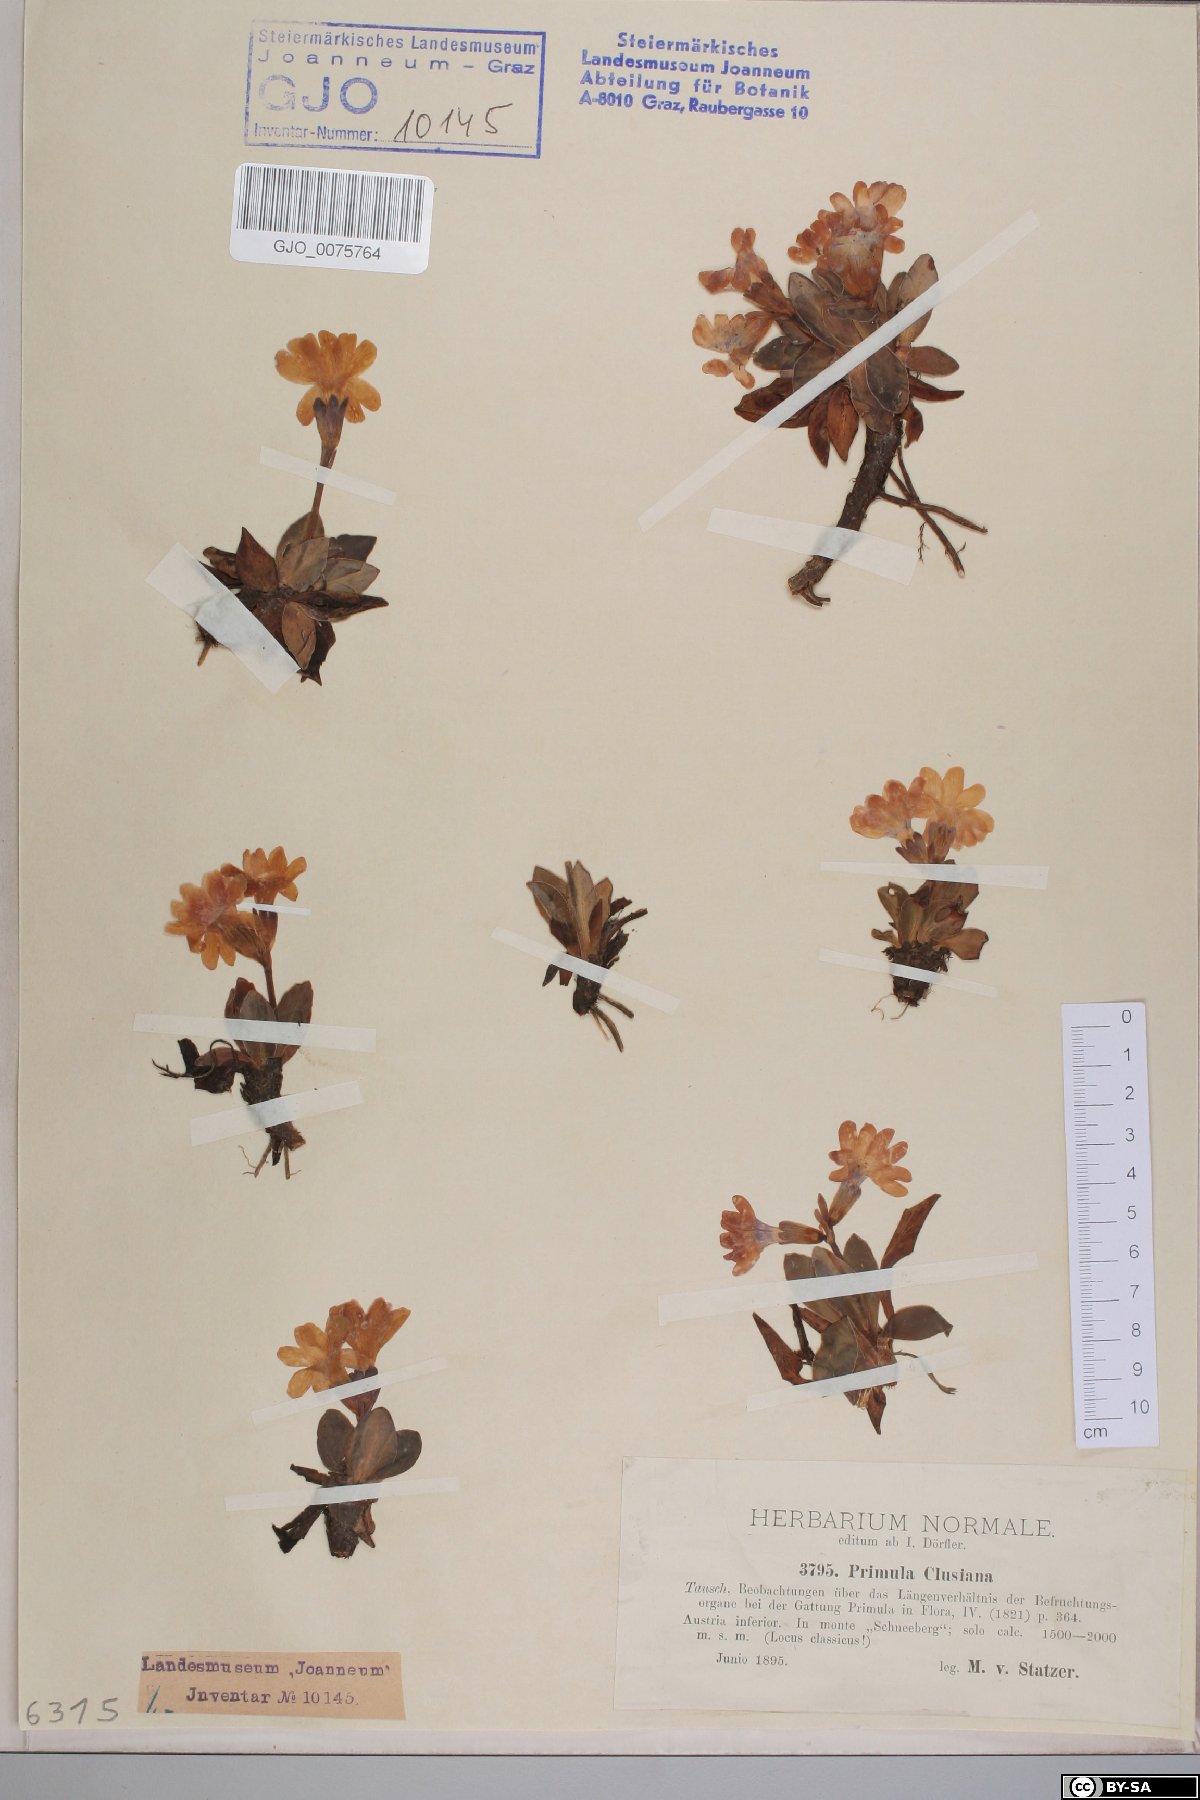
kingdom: Plantae
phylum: Tracheophyta
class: Magnoliopsida
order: Ericales
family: Primulaceae
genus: Primula
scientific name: Primula clusiana
